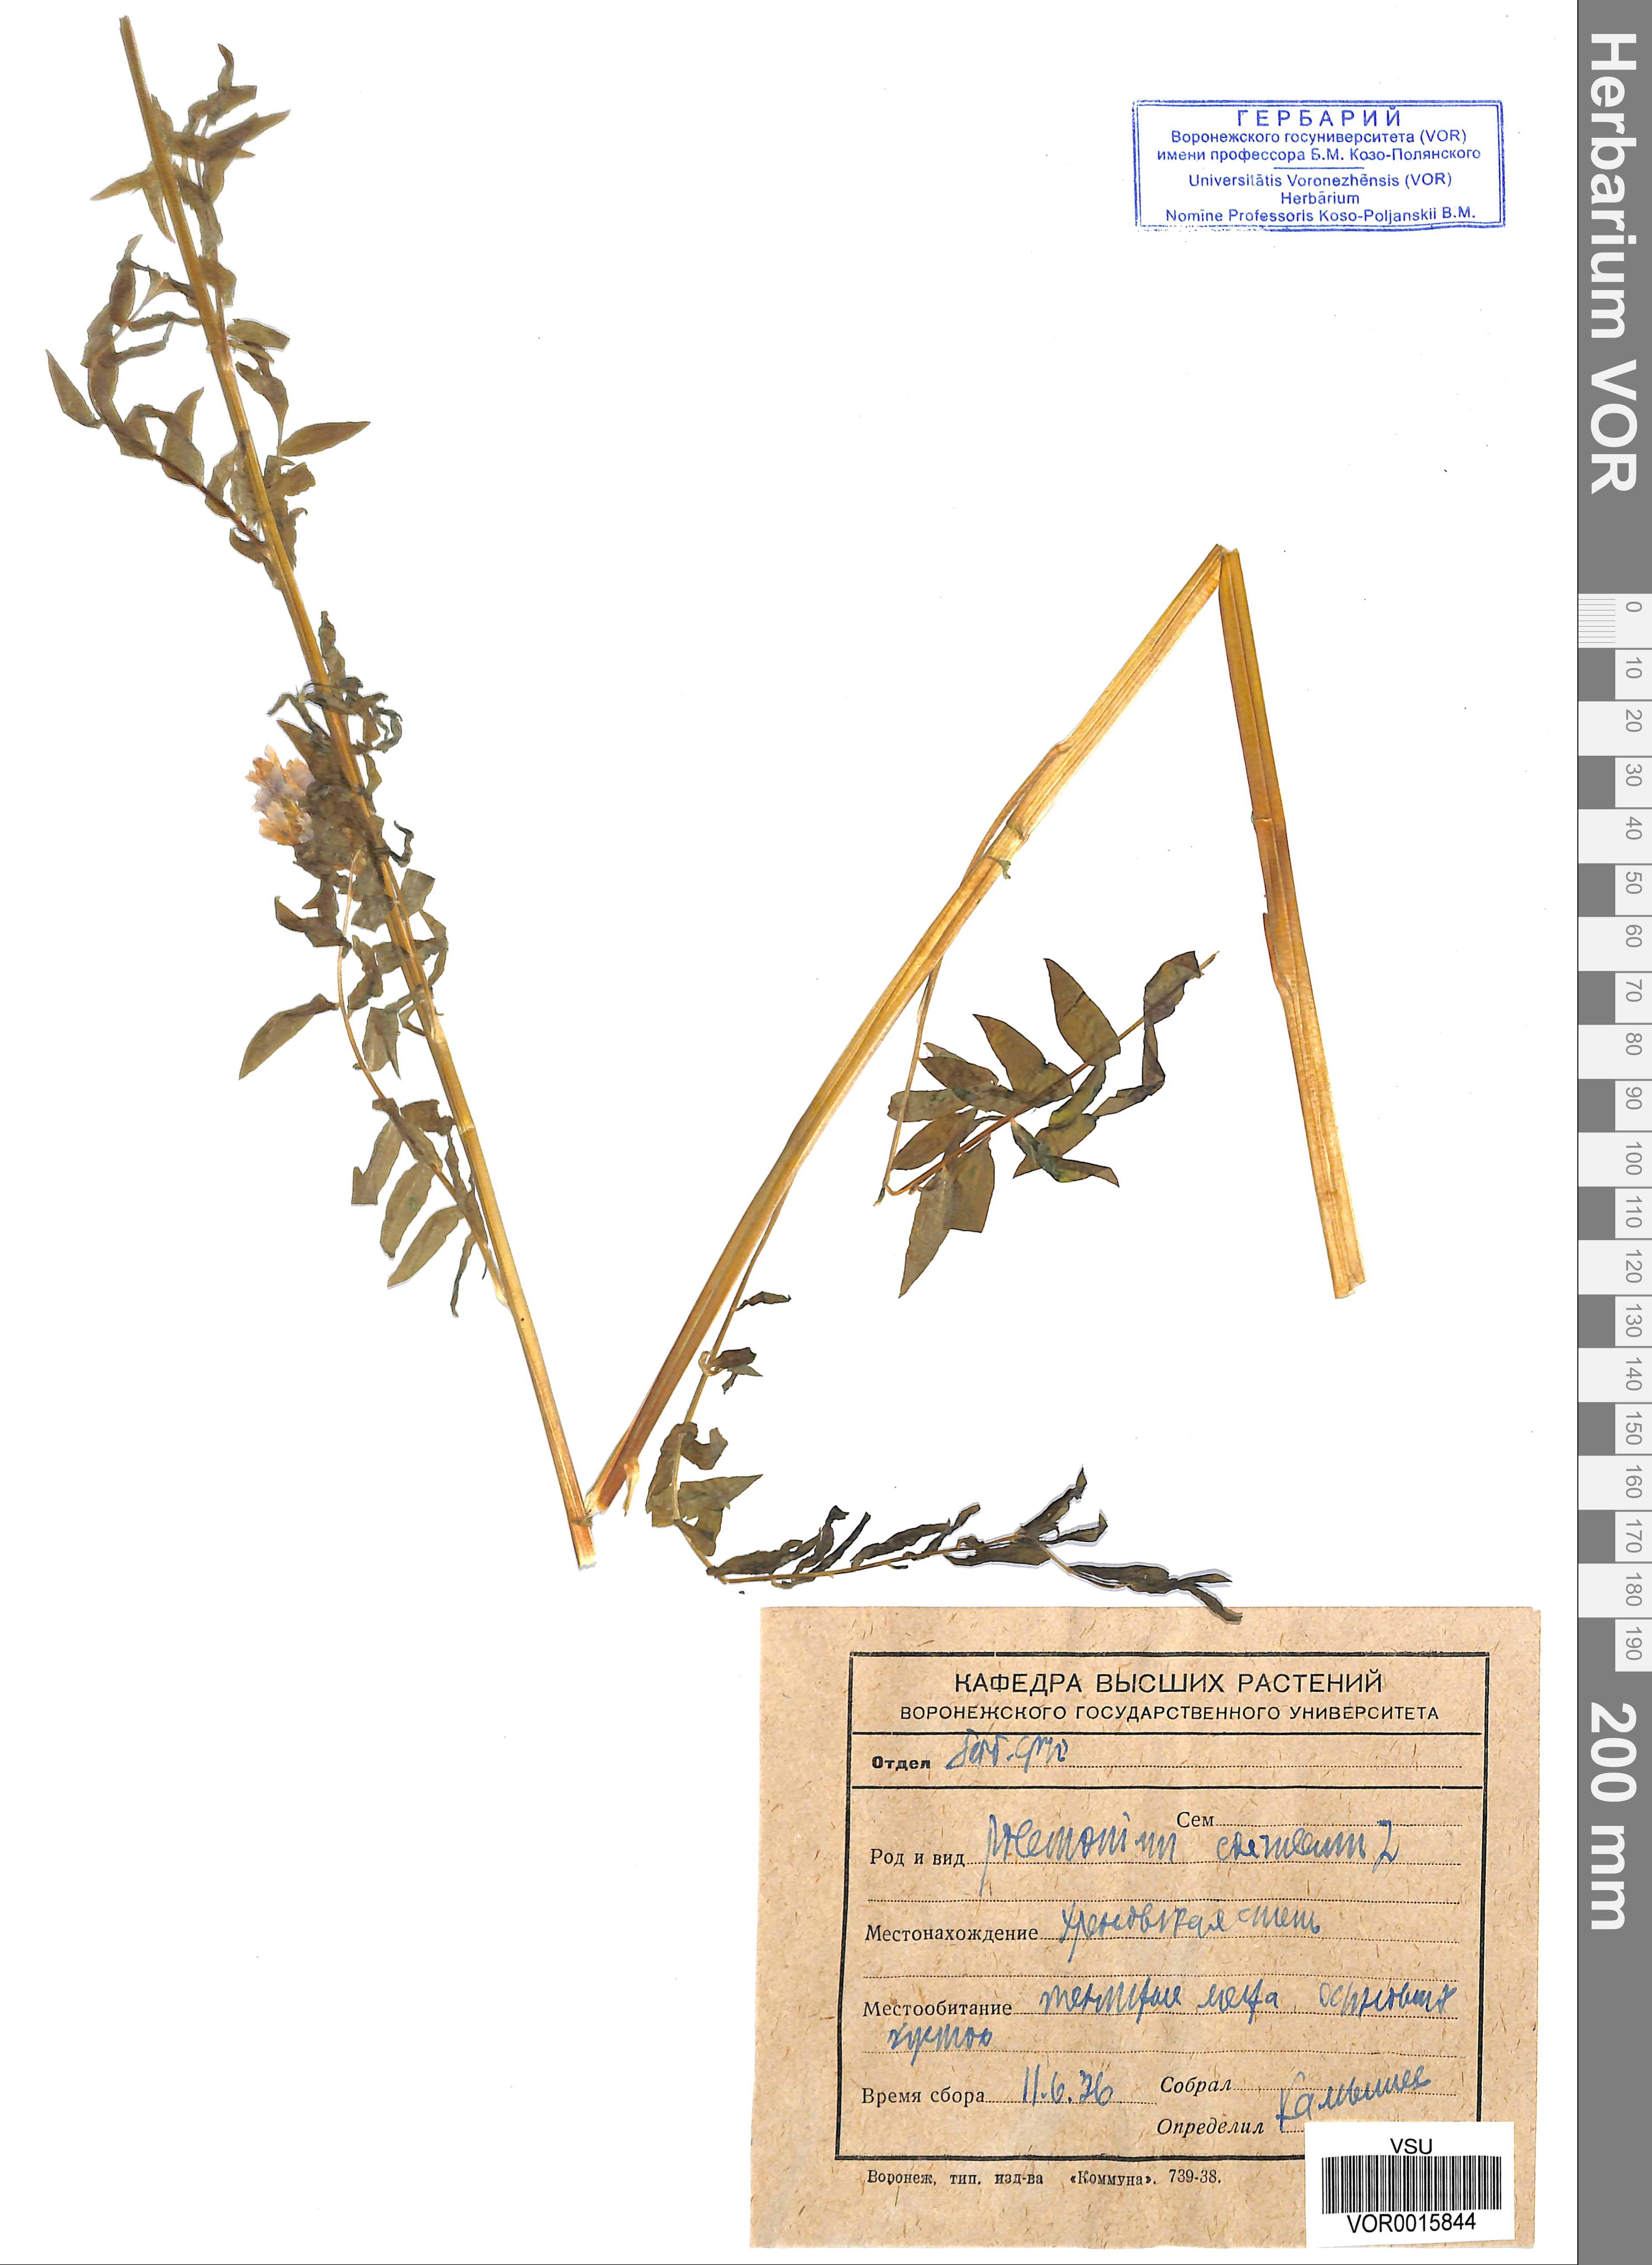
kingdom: Plantae
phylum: Tracheophyta
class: Magnoliopsida
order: Ericales
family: Polemoniaceae
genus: Polemonium
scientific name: Polemonium caeruleum
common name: Jacob's-ladder
